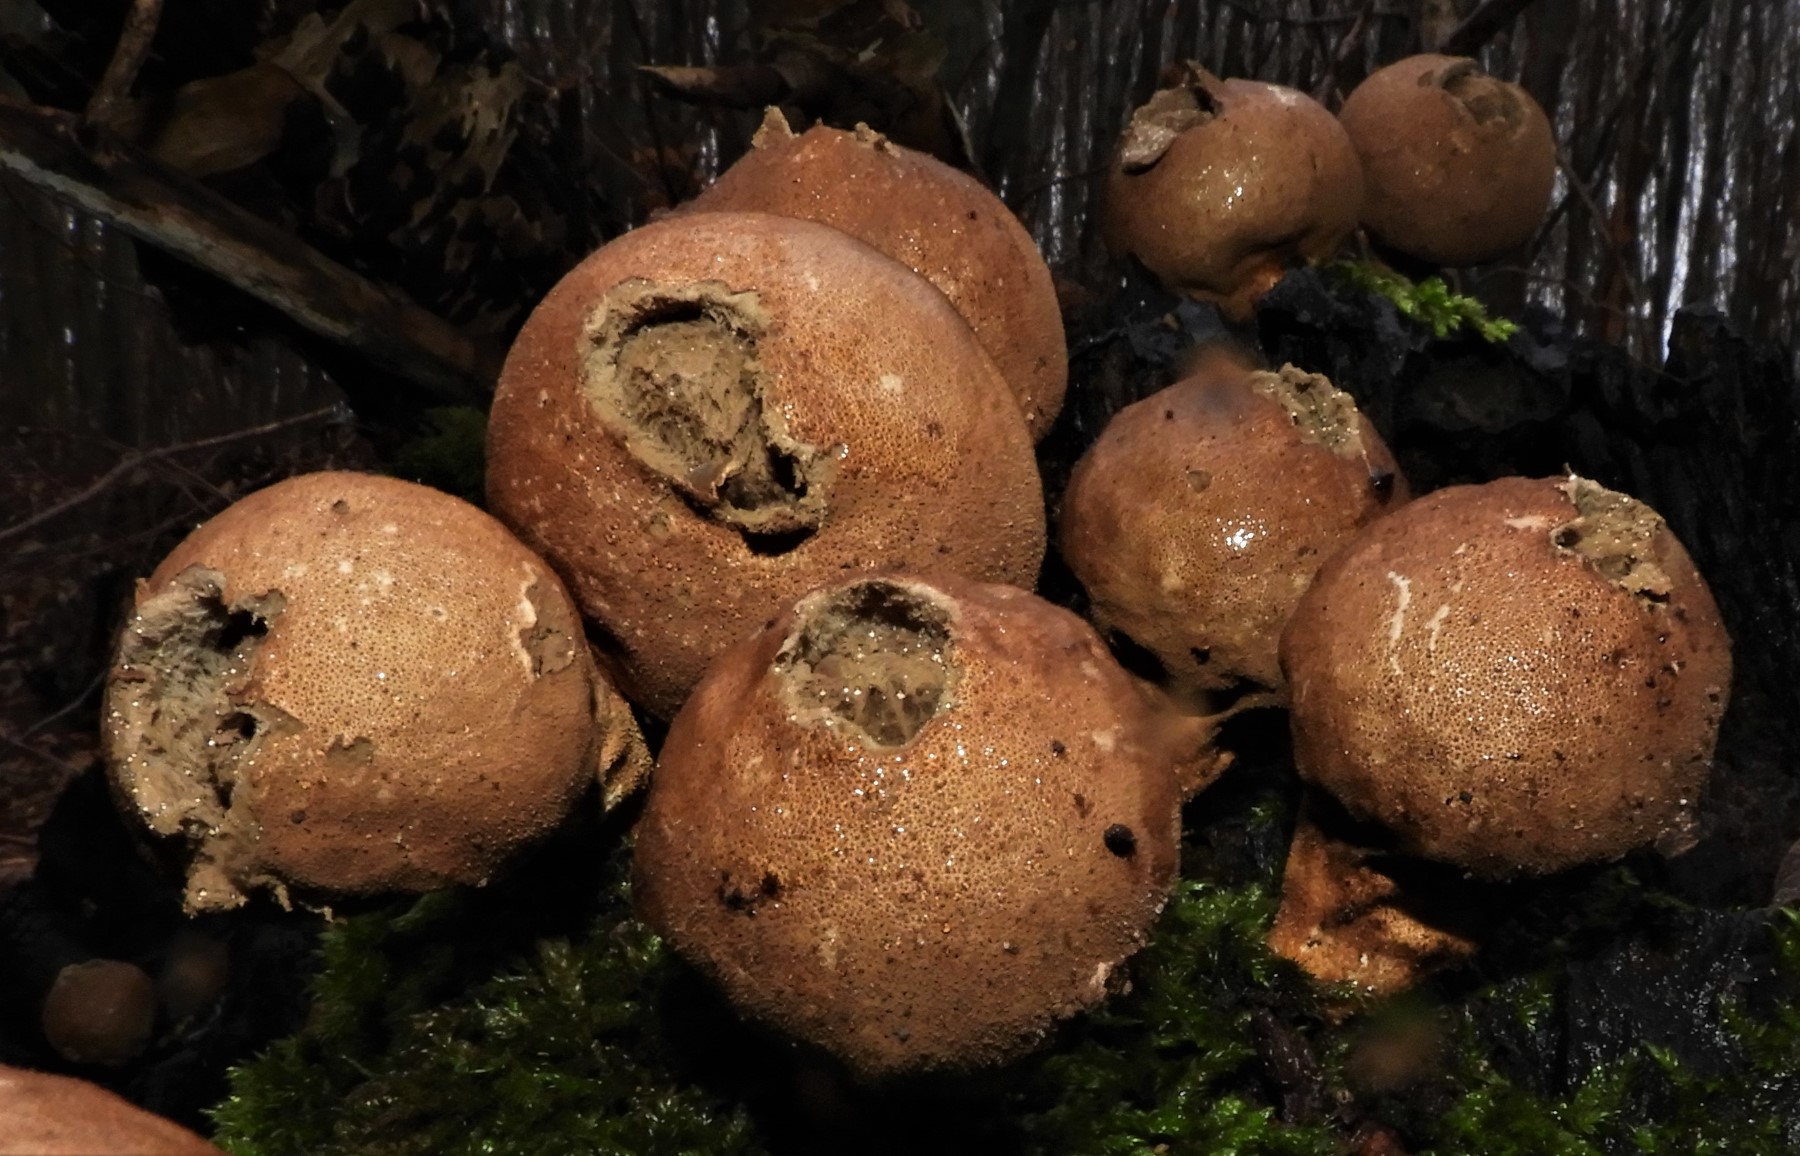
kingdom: Fungi
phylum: Basidiomycota
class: Agaricomycetes
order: Agaricales
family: Lycoperdaceae
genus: Apioperdon
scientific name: Apioperdon pyriforme
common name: pære-støvbold
